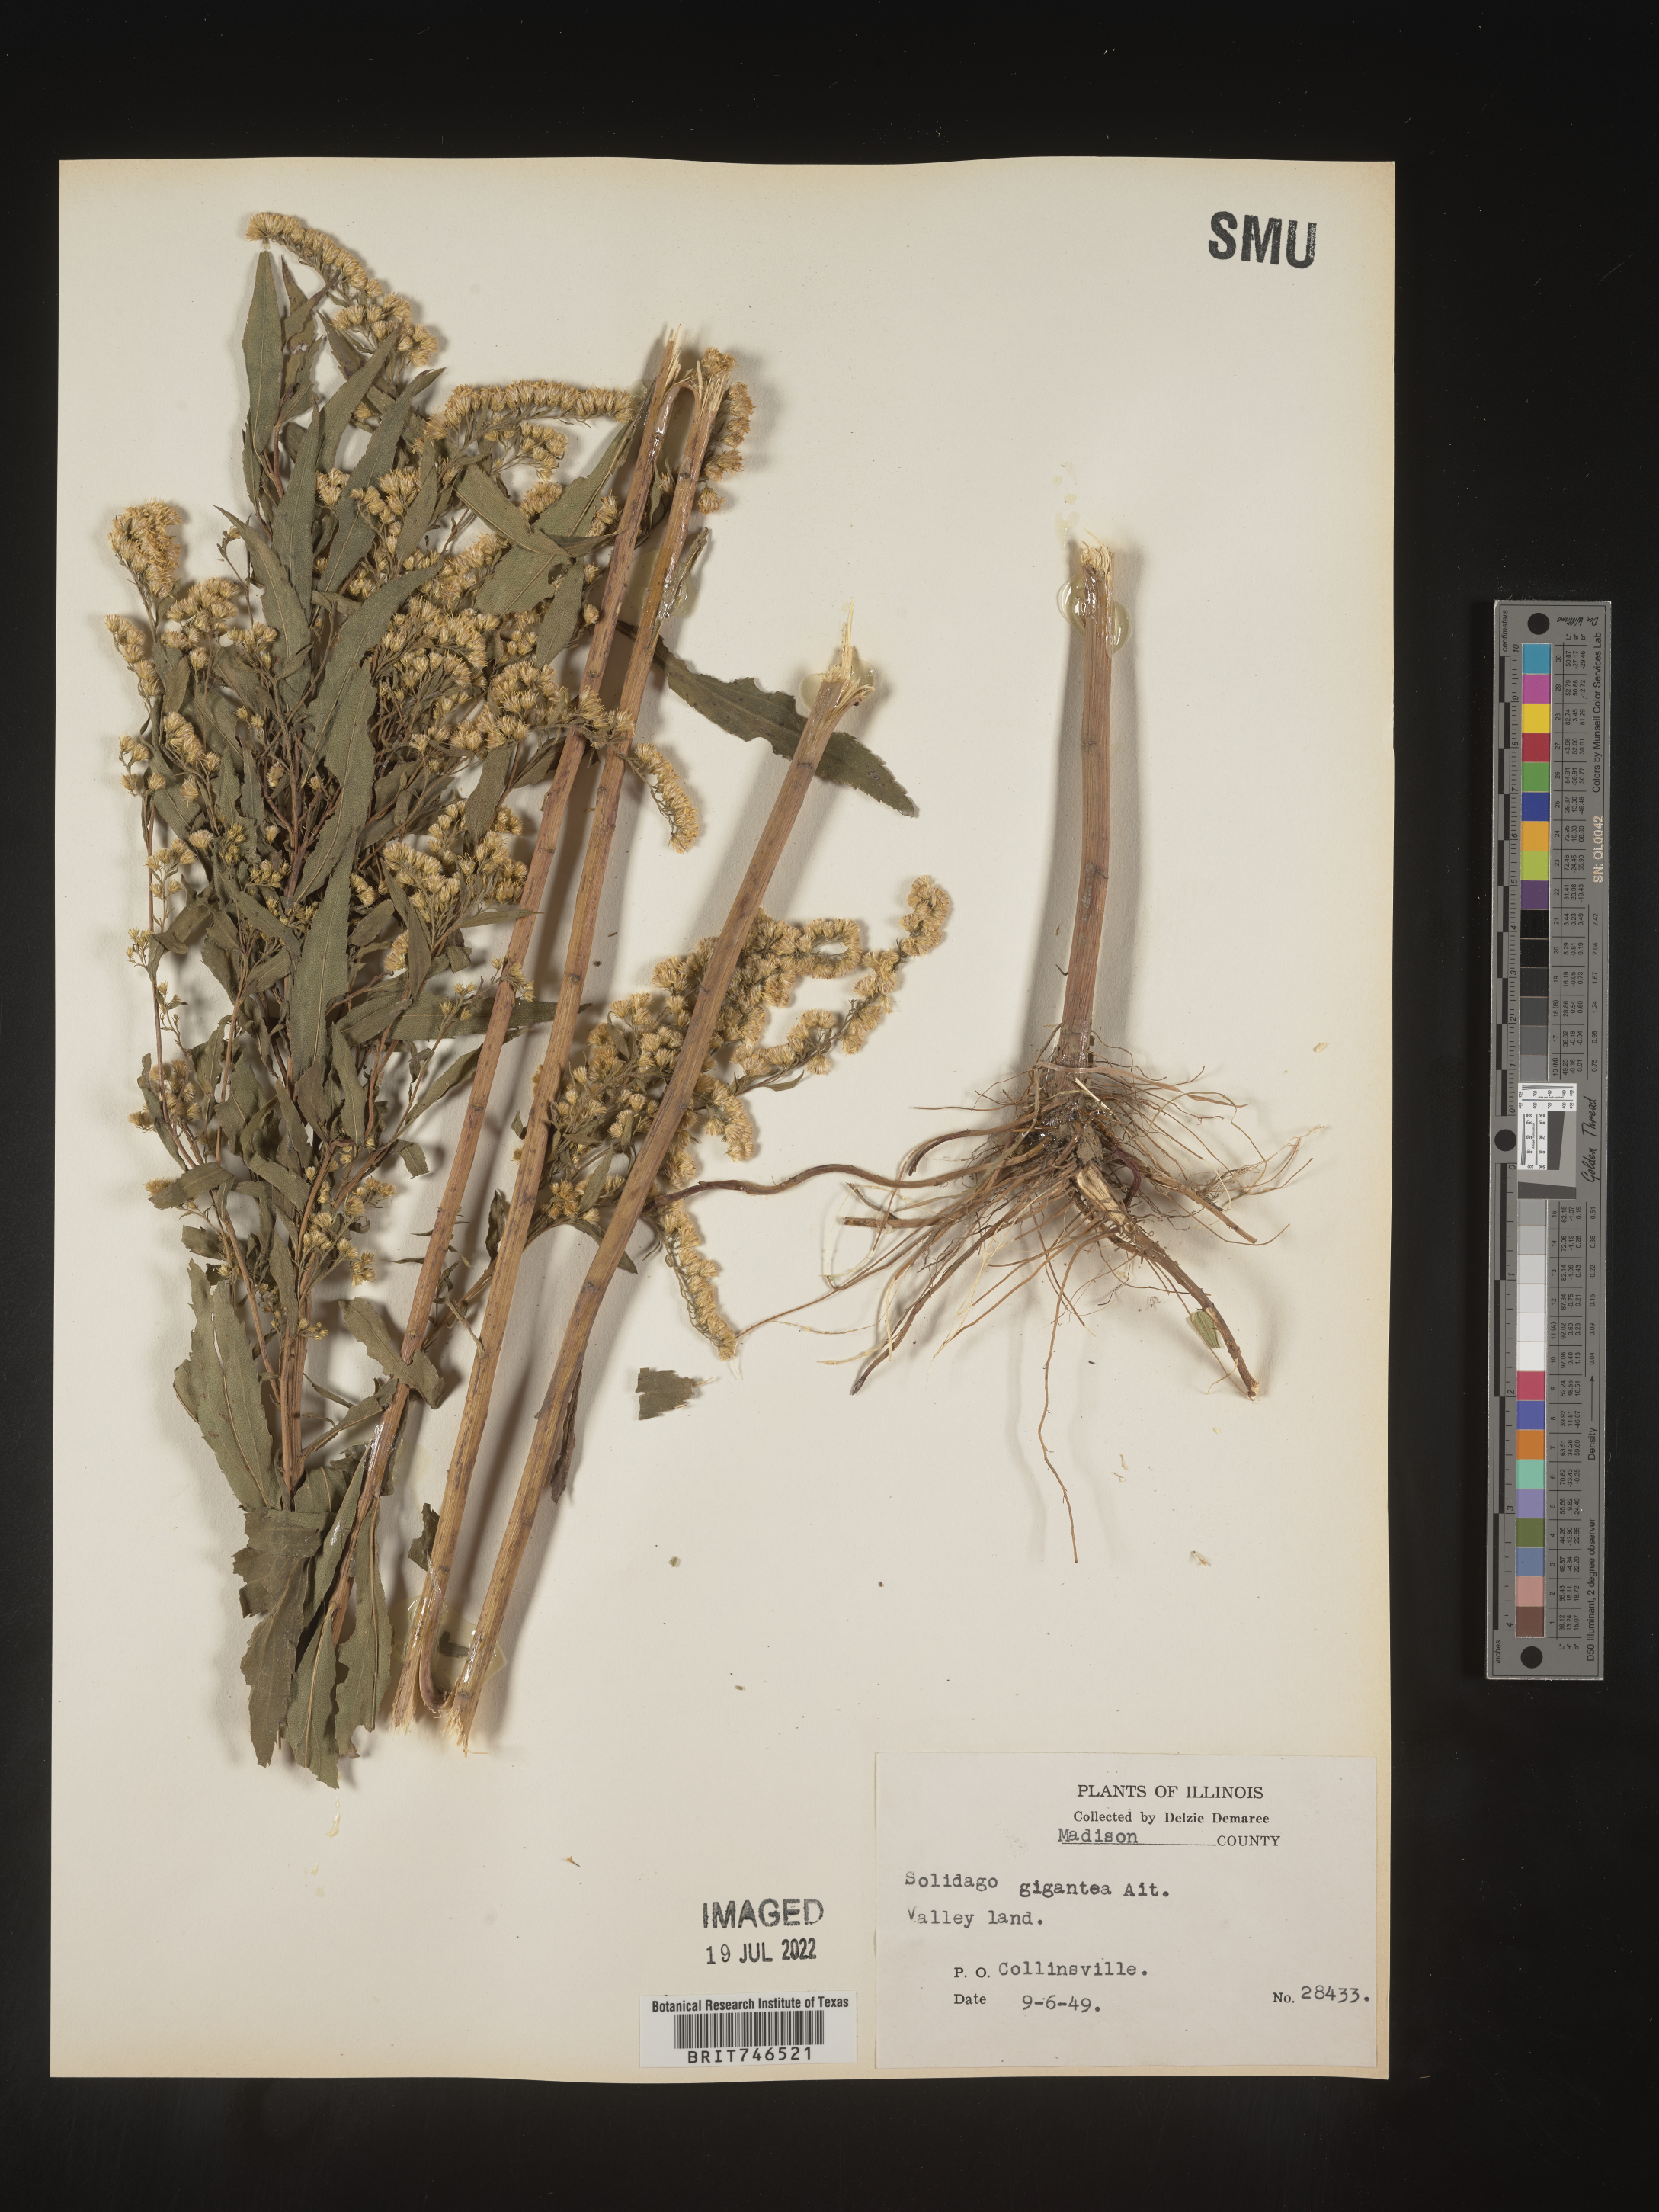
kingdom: Plantae
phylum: Tracheophyta
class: Magnoliopsida
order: Asterales
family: Asteraceae
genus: Solidago
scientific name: Solidago gigantea
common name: Giant goldenrod
